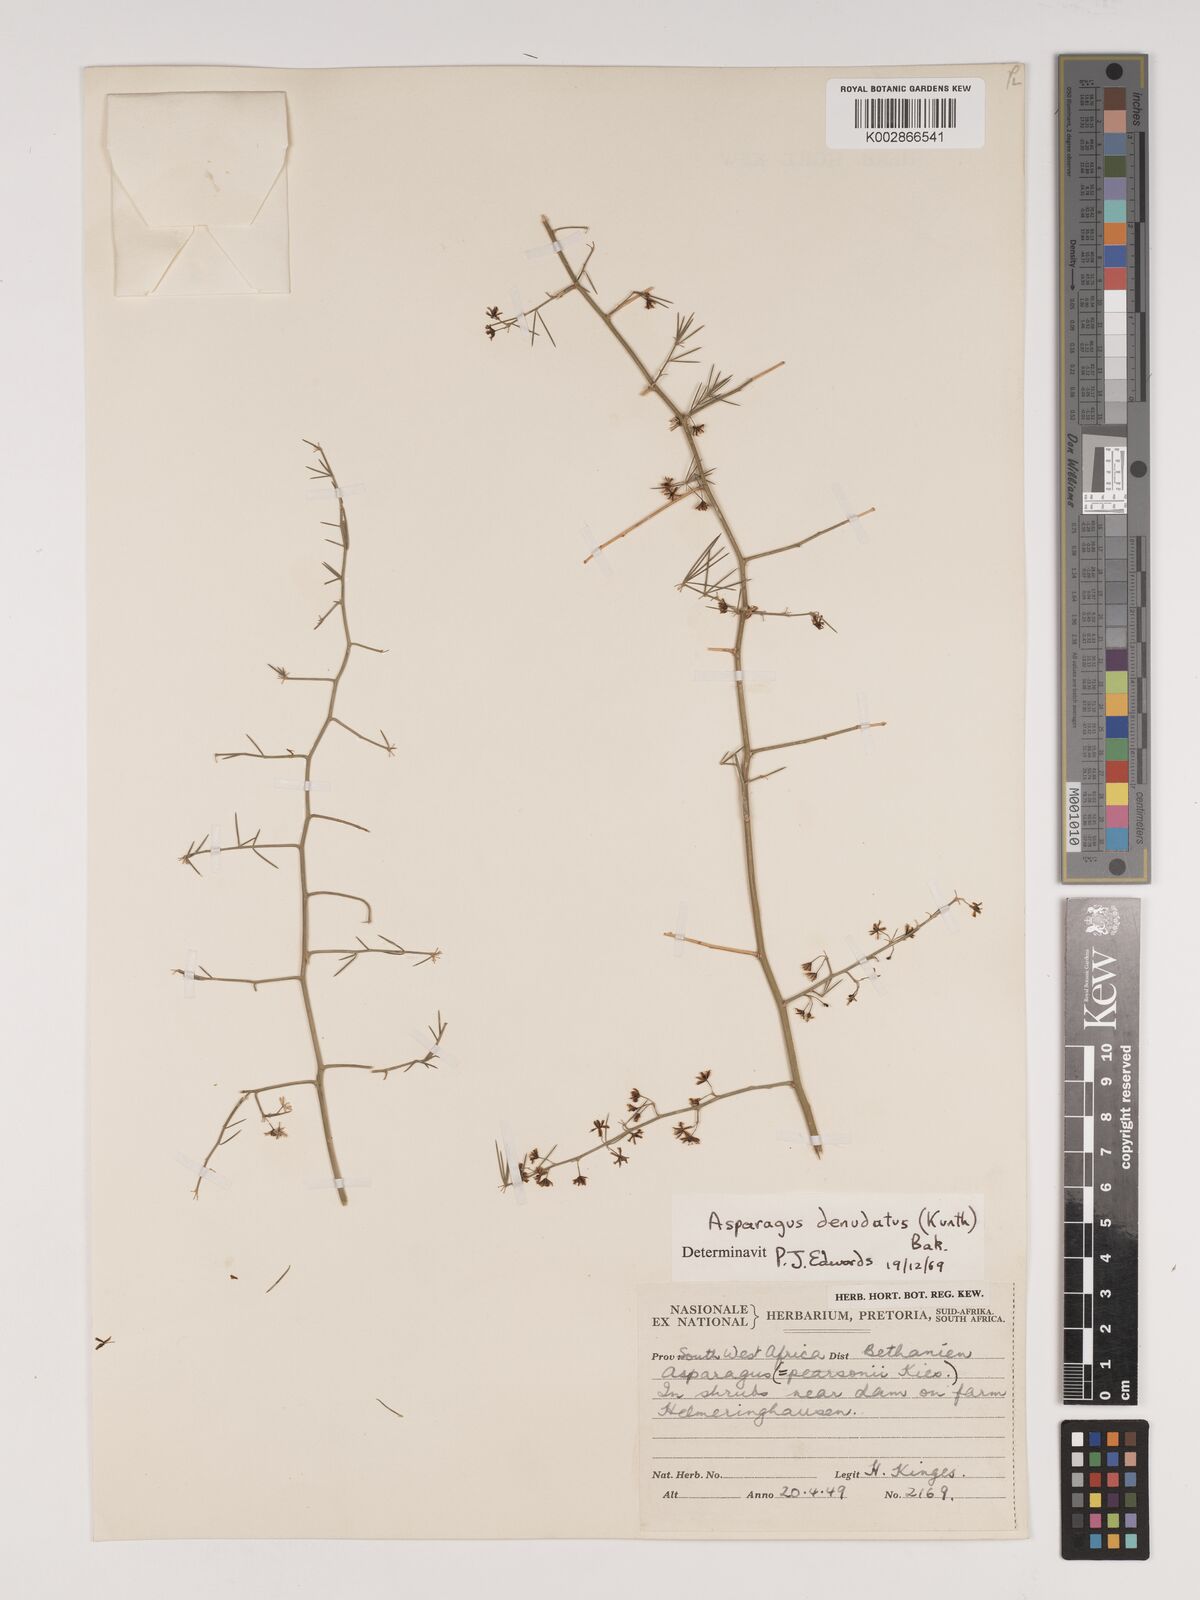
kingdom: Plantae
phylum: Tracheophyta
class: Liliopsida
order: Asparagales
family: Asparagaceae
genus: Asparagus
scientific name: Asparagus denudatus
